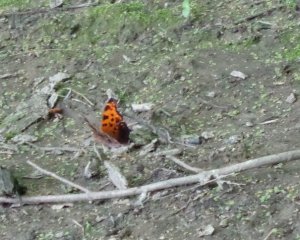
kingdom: Animalia
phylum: Arthropoda
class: Insecta
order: Lepidoptera
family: Nymphalidae
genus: Polygonia
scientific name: Polygonia comma
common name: Eastern Comma
